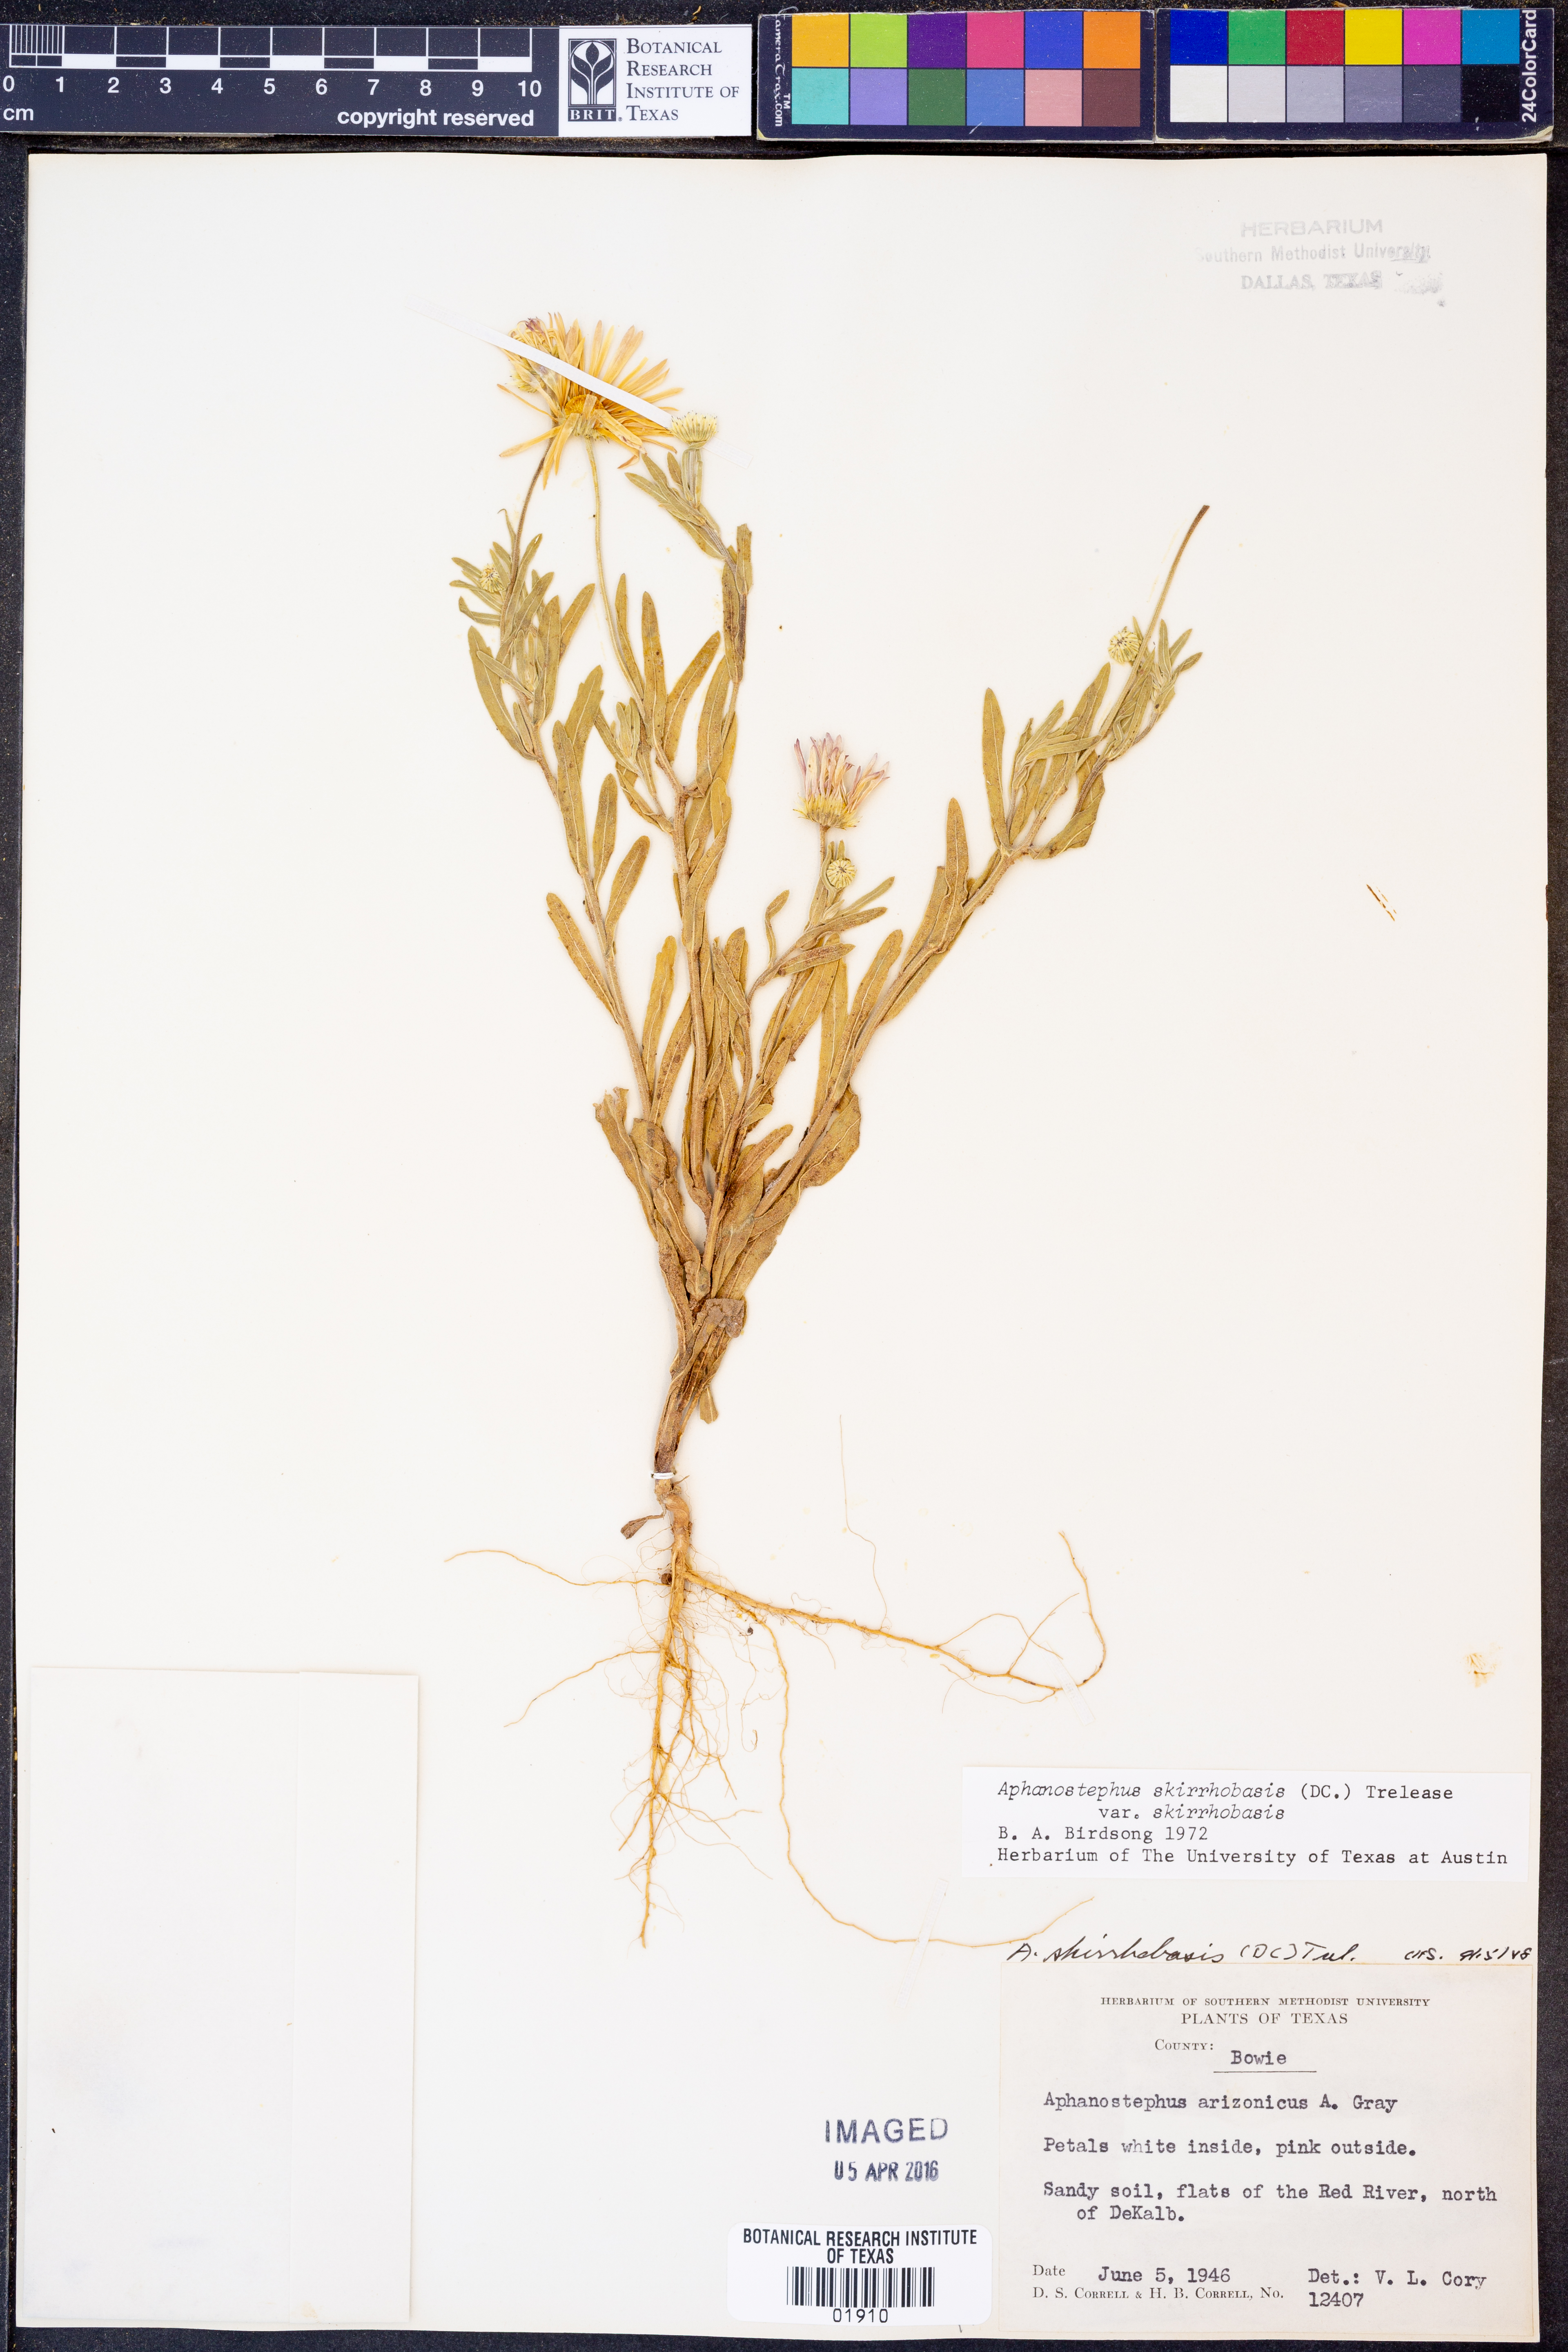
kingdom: Plantae
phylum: Tracheophyta
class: Magnoliopsida
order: Asterales
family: Asteraceae
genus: Aphanostephus
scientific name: Aphanostephus skirrhobasis
